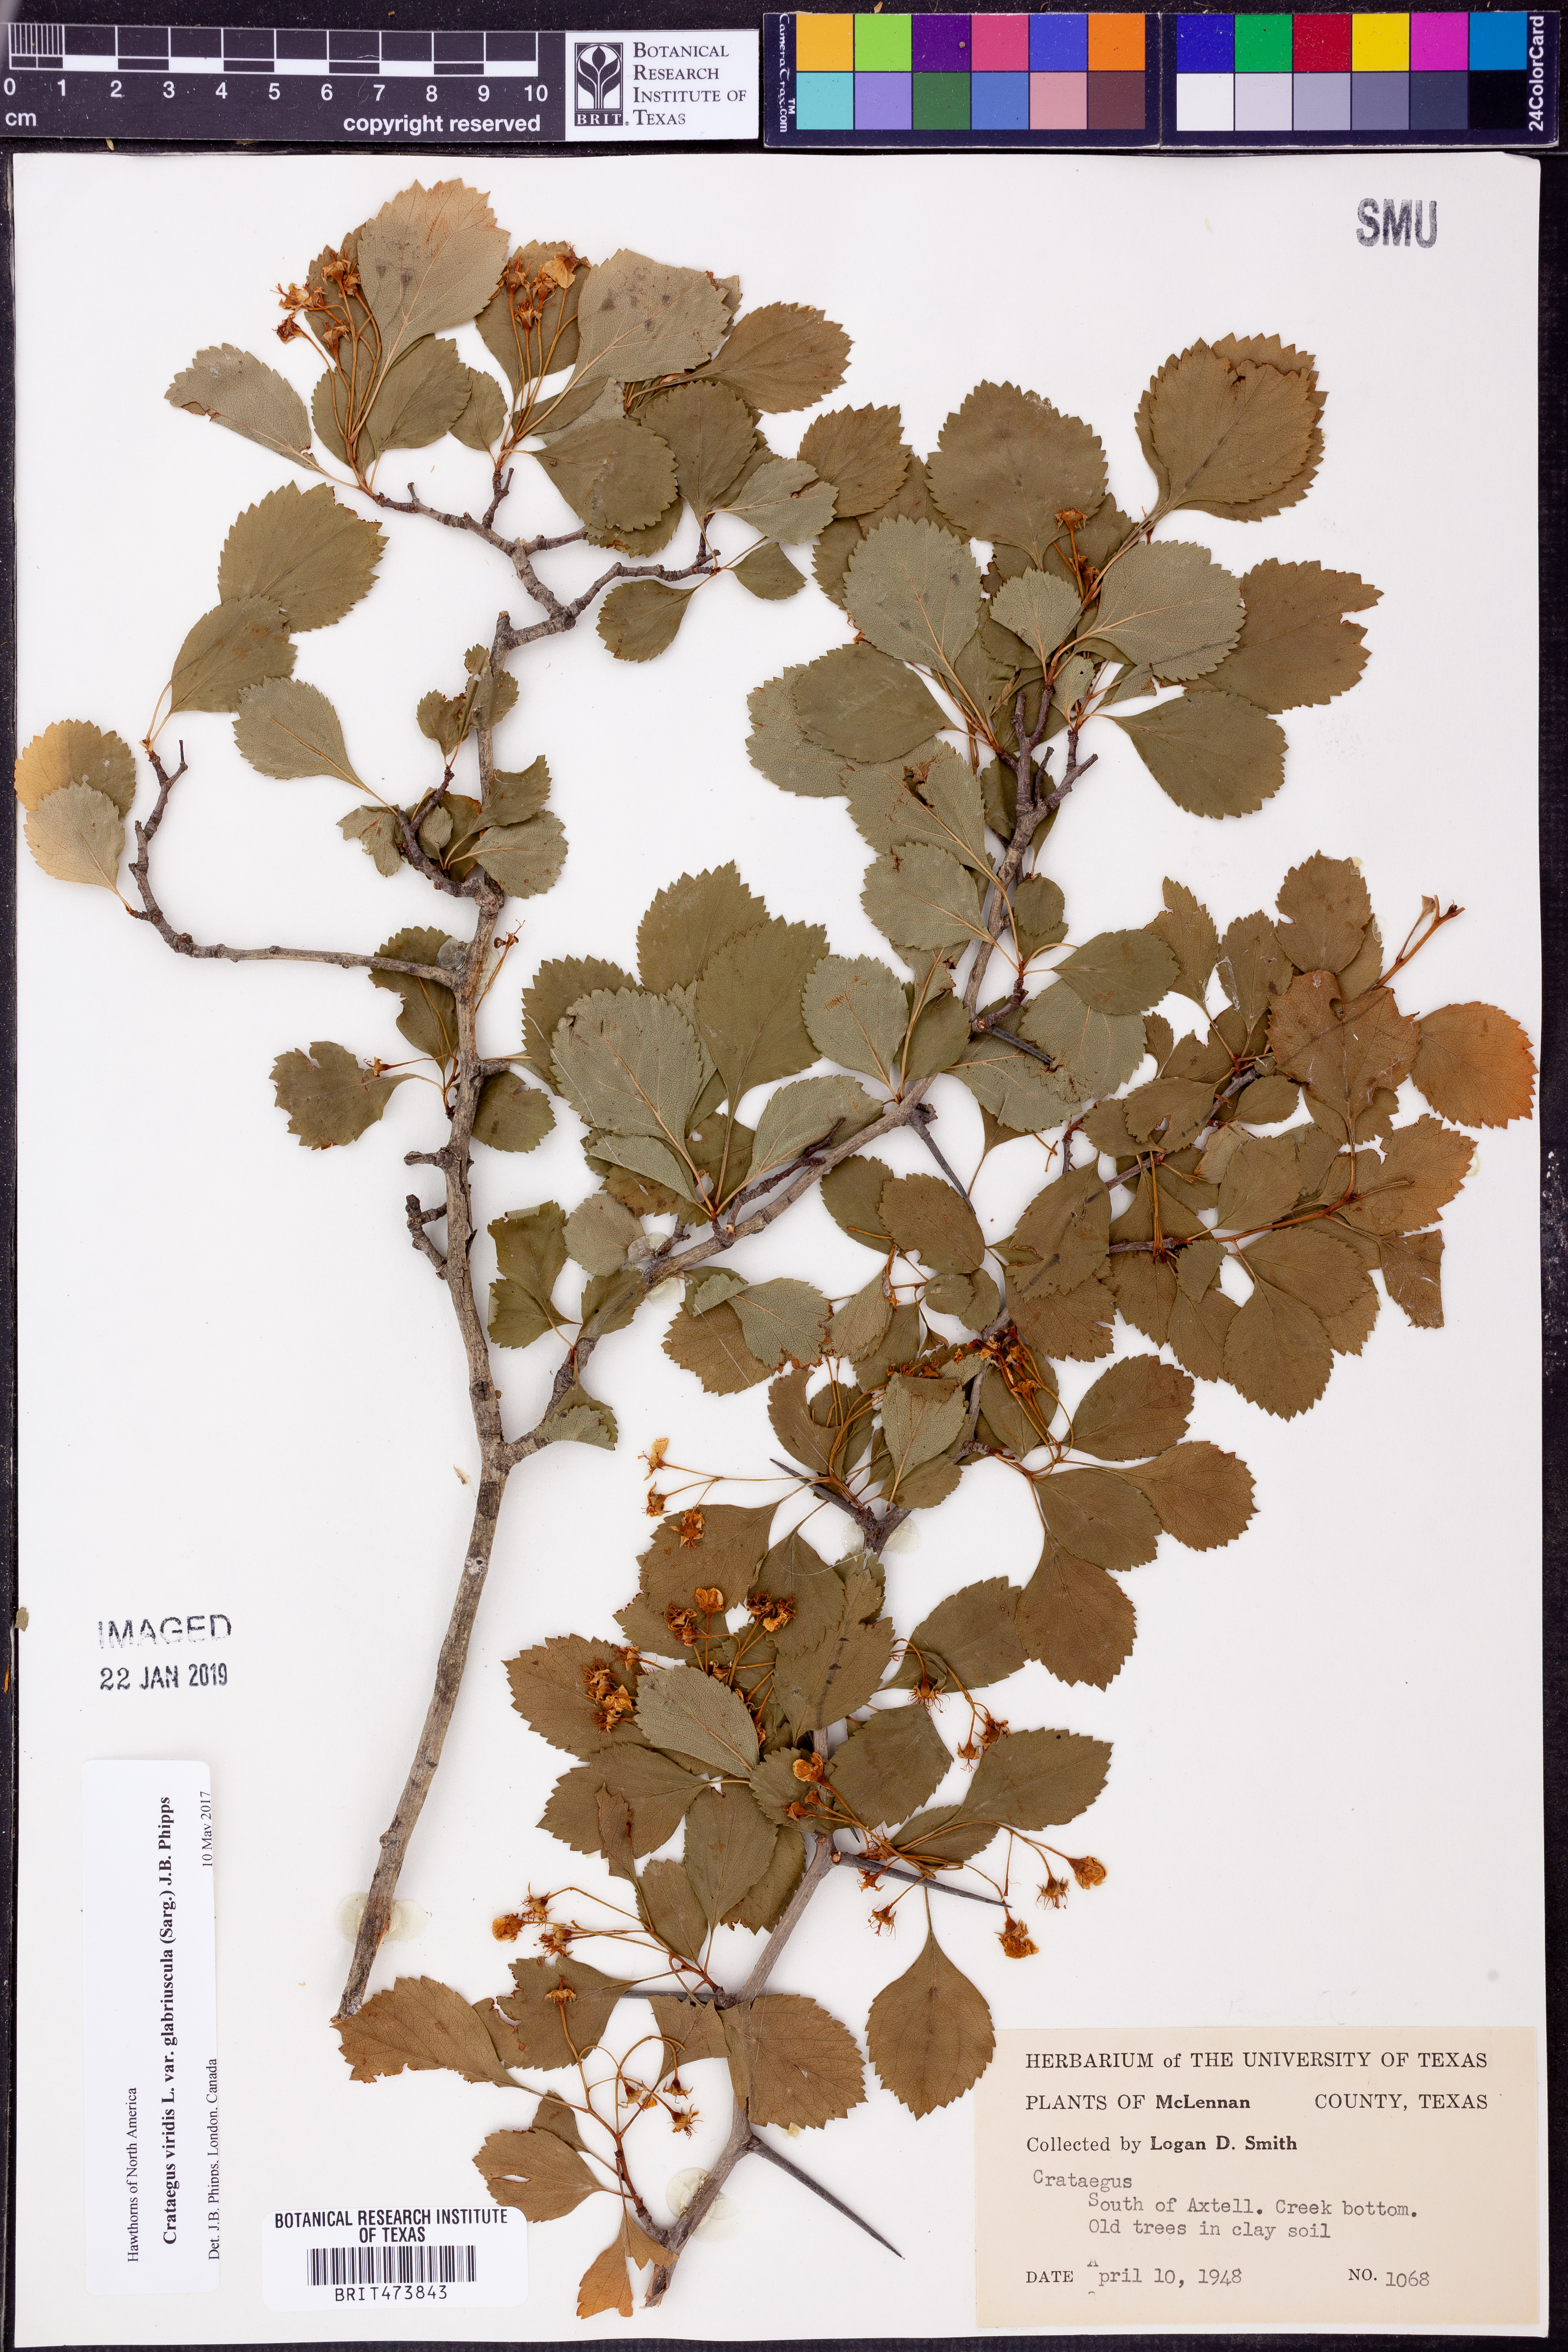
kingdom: Plantae
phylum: Tracheophyta
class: Magnoliopsida
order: Rosales
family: Rosaceae
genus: Crataegus
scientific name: Crataegus viridis
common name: Southernthorn
